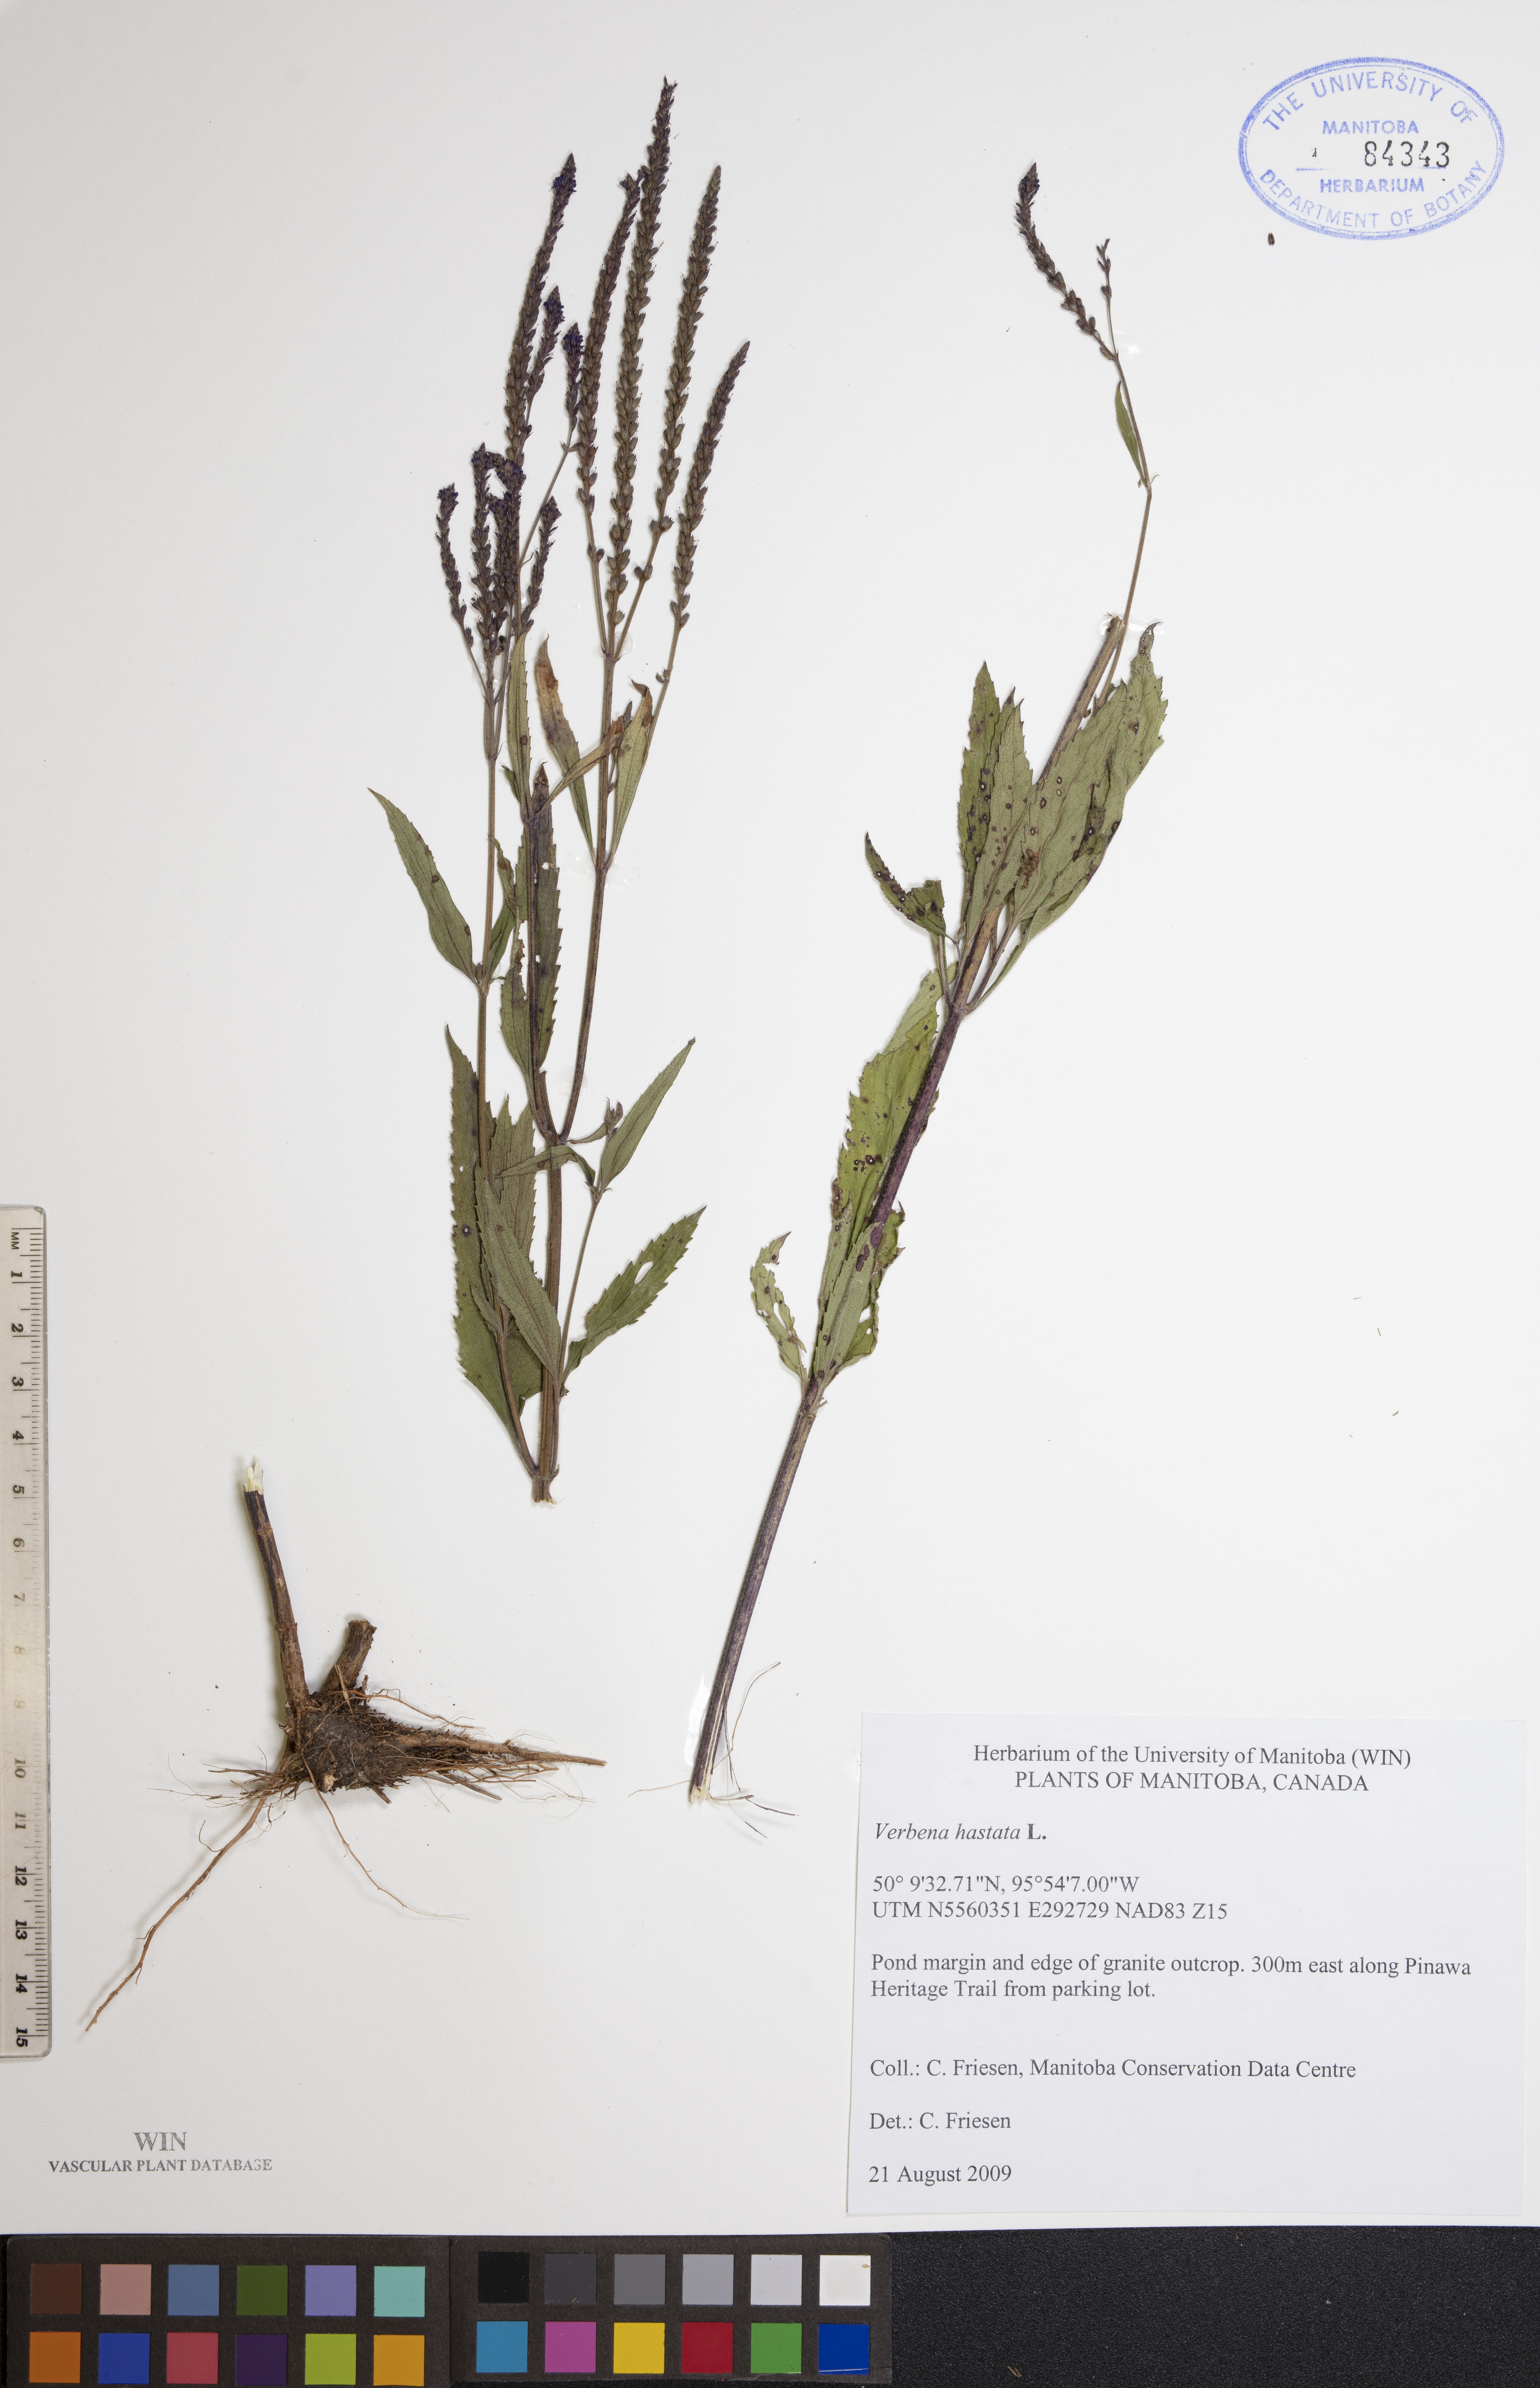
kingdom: Plantae
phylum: Tracheophyta
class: Magnoliopsida
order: Lamiales
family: Verbenaceae
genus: Verbena
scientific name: Verbena hastata
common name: American blue vervain
